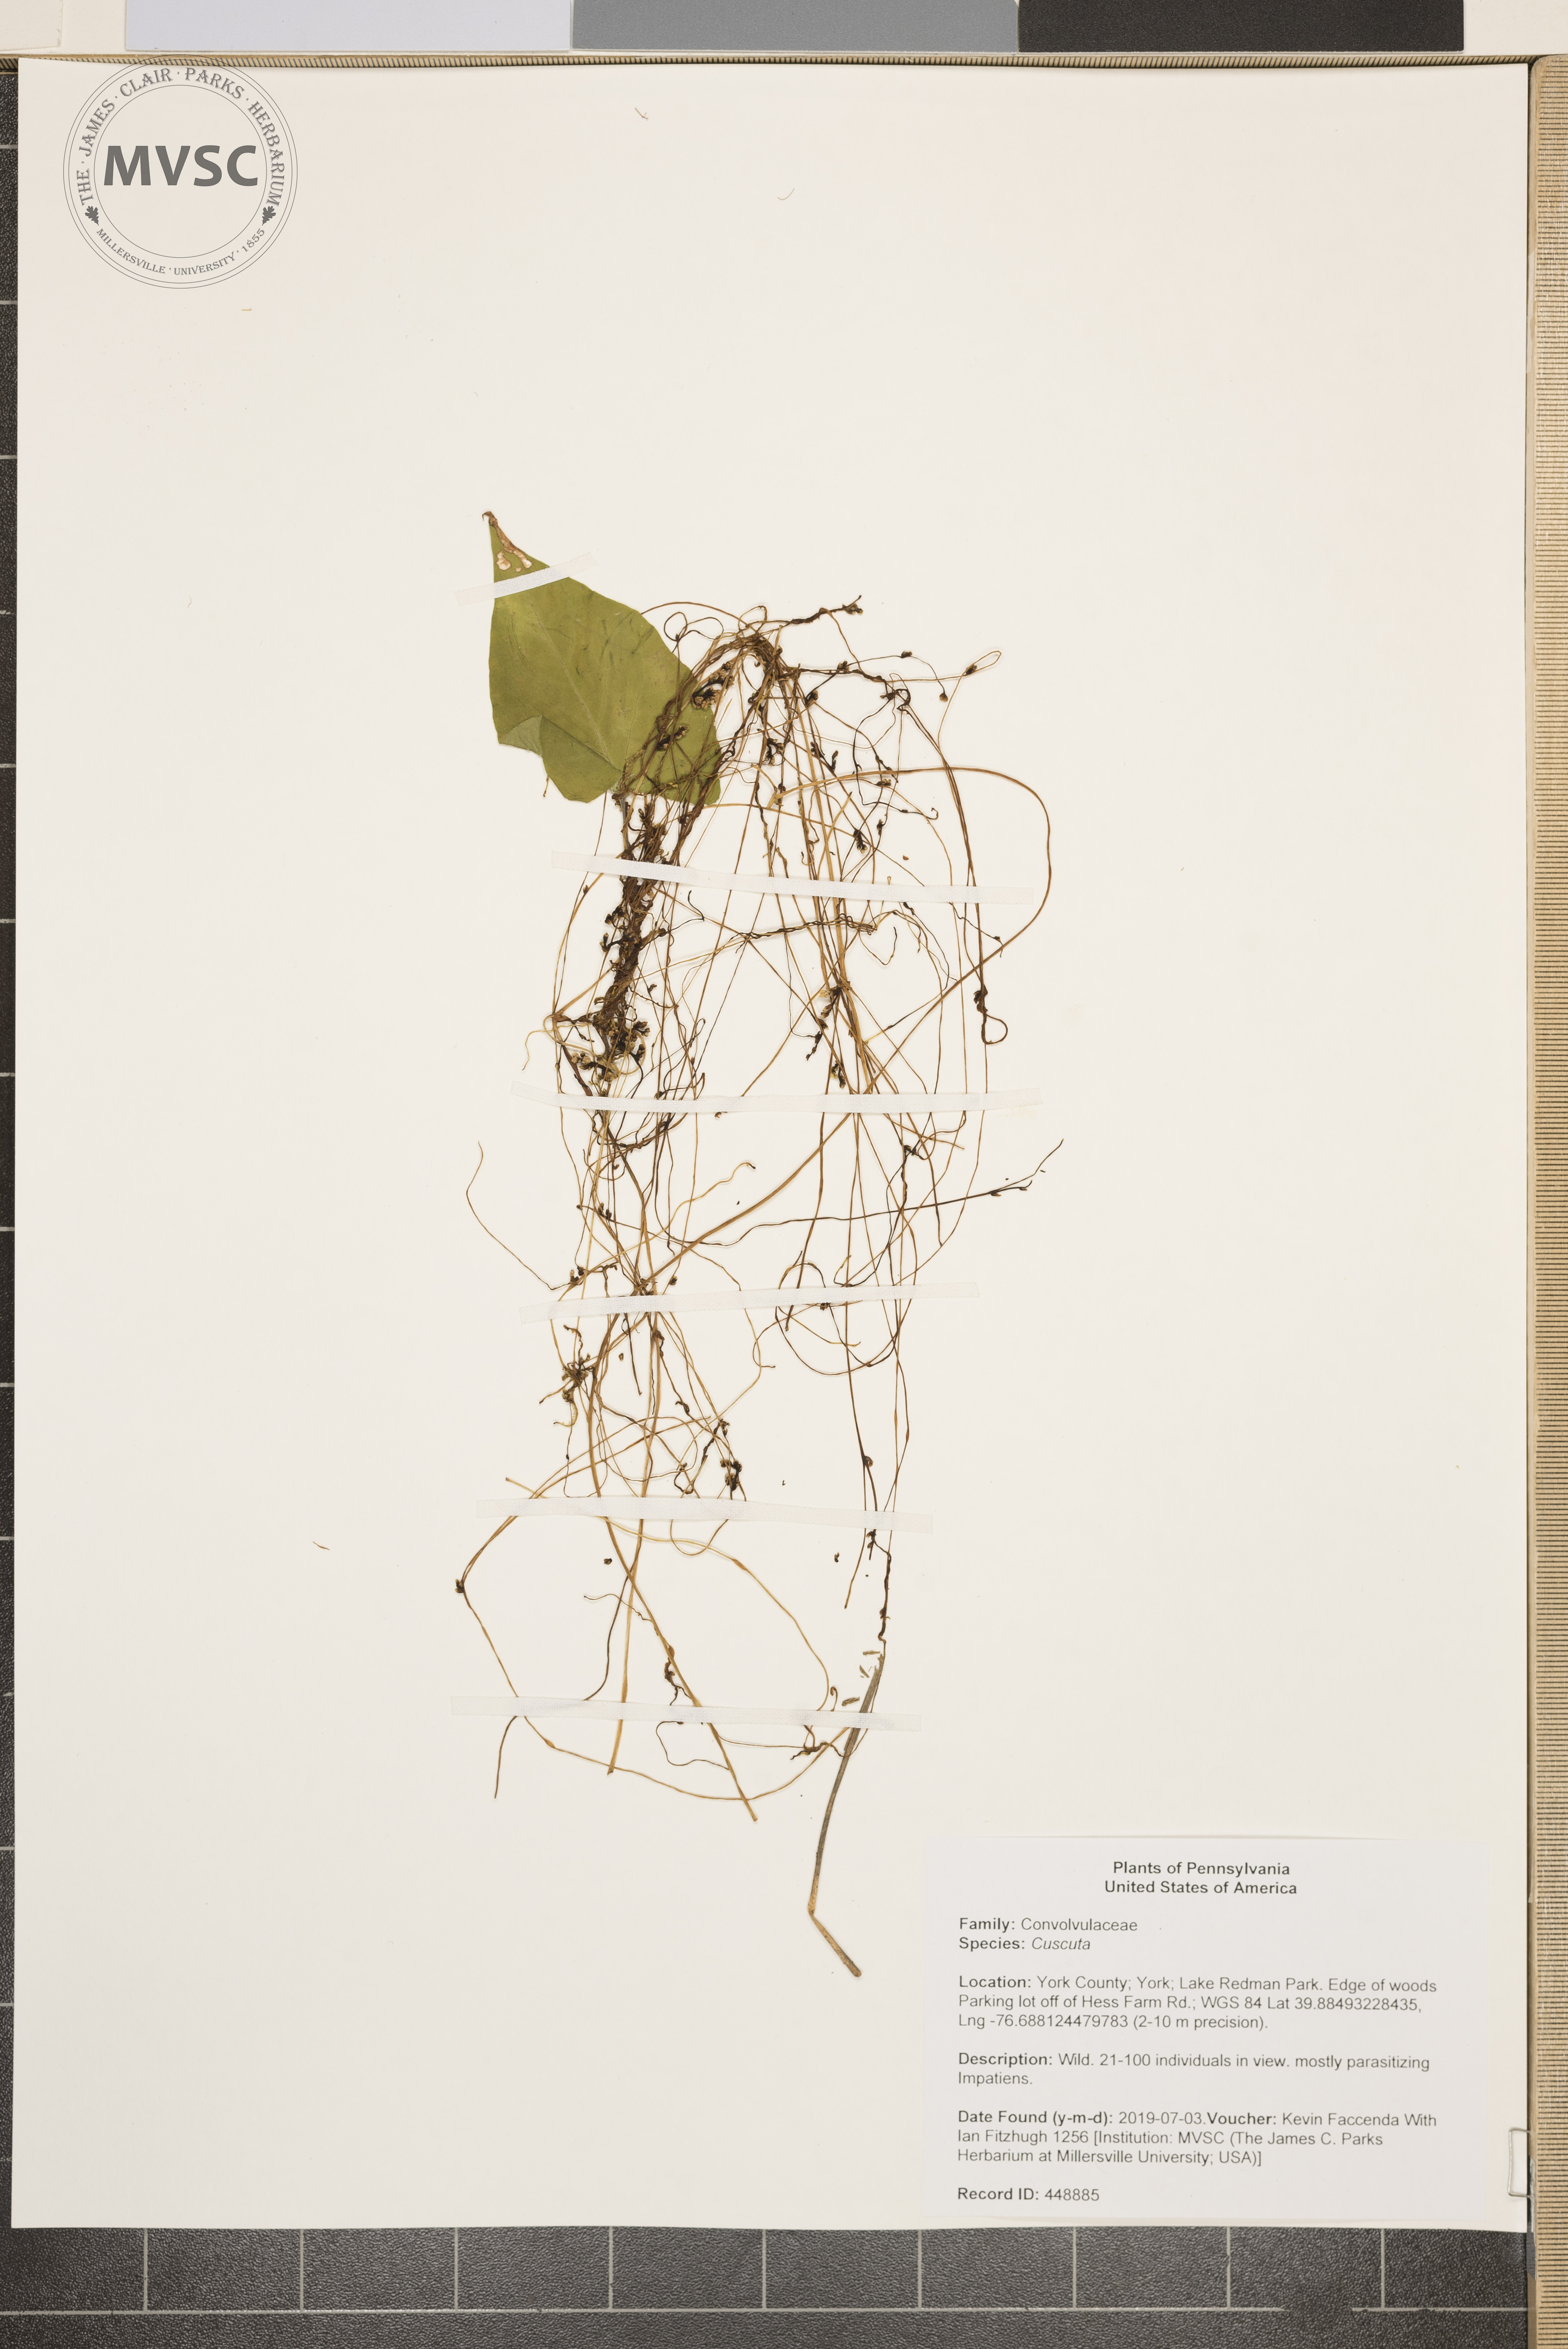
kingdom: Plantae
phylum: Tracheophyta
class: Magnoliopsida
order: Solanales
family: Convolvulaceae
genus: Cuscuta
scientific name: Cuscuta
